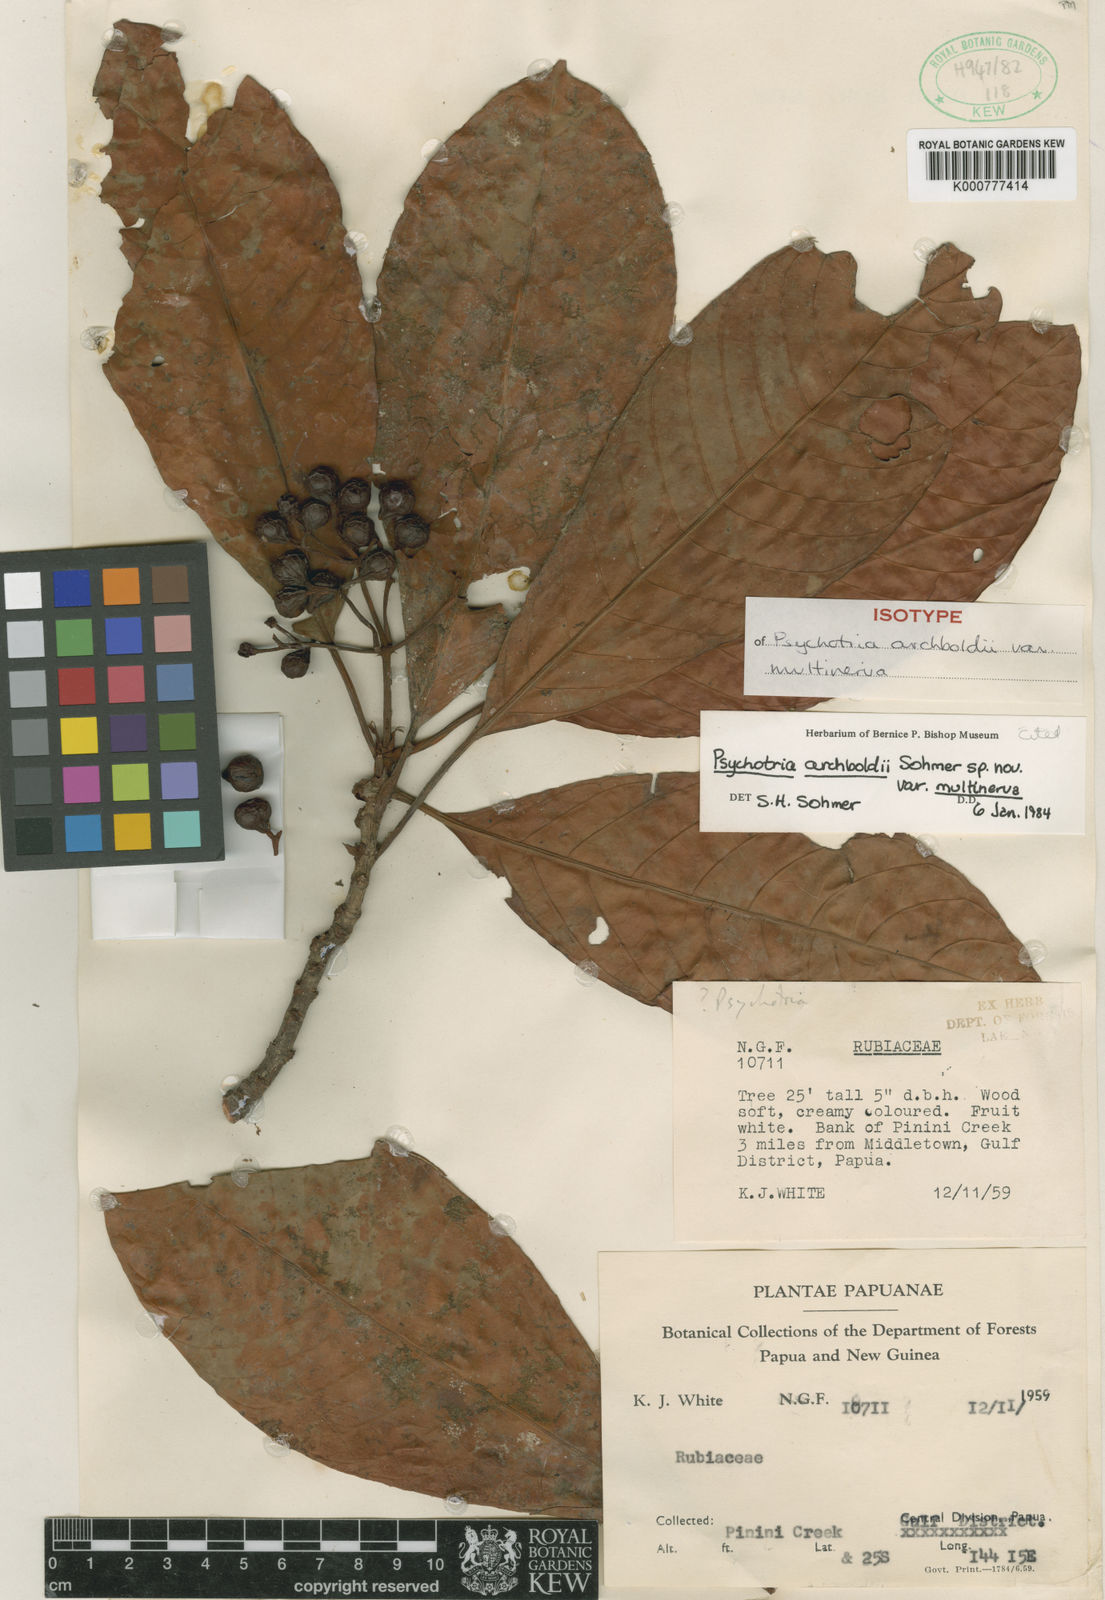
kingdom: Plantae
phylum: Tracheophyta
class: Magnoliopsida
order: Gentianales
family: Rubiaceae
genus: Psychotria
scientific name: Psychotria archboldii
